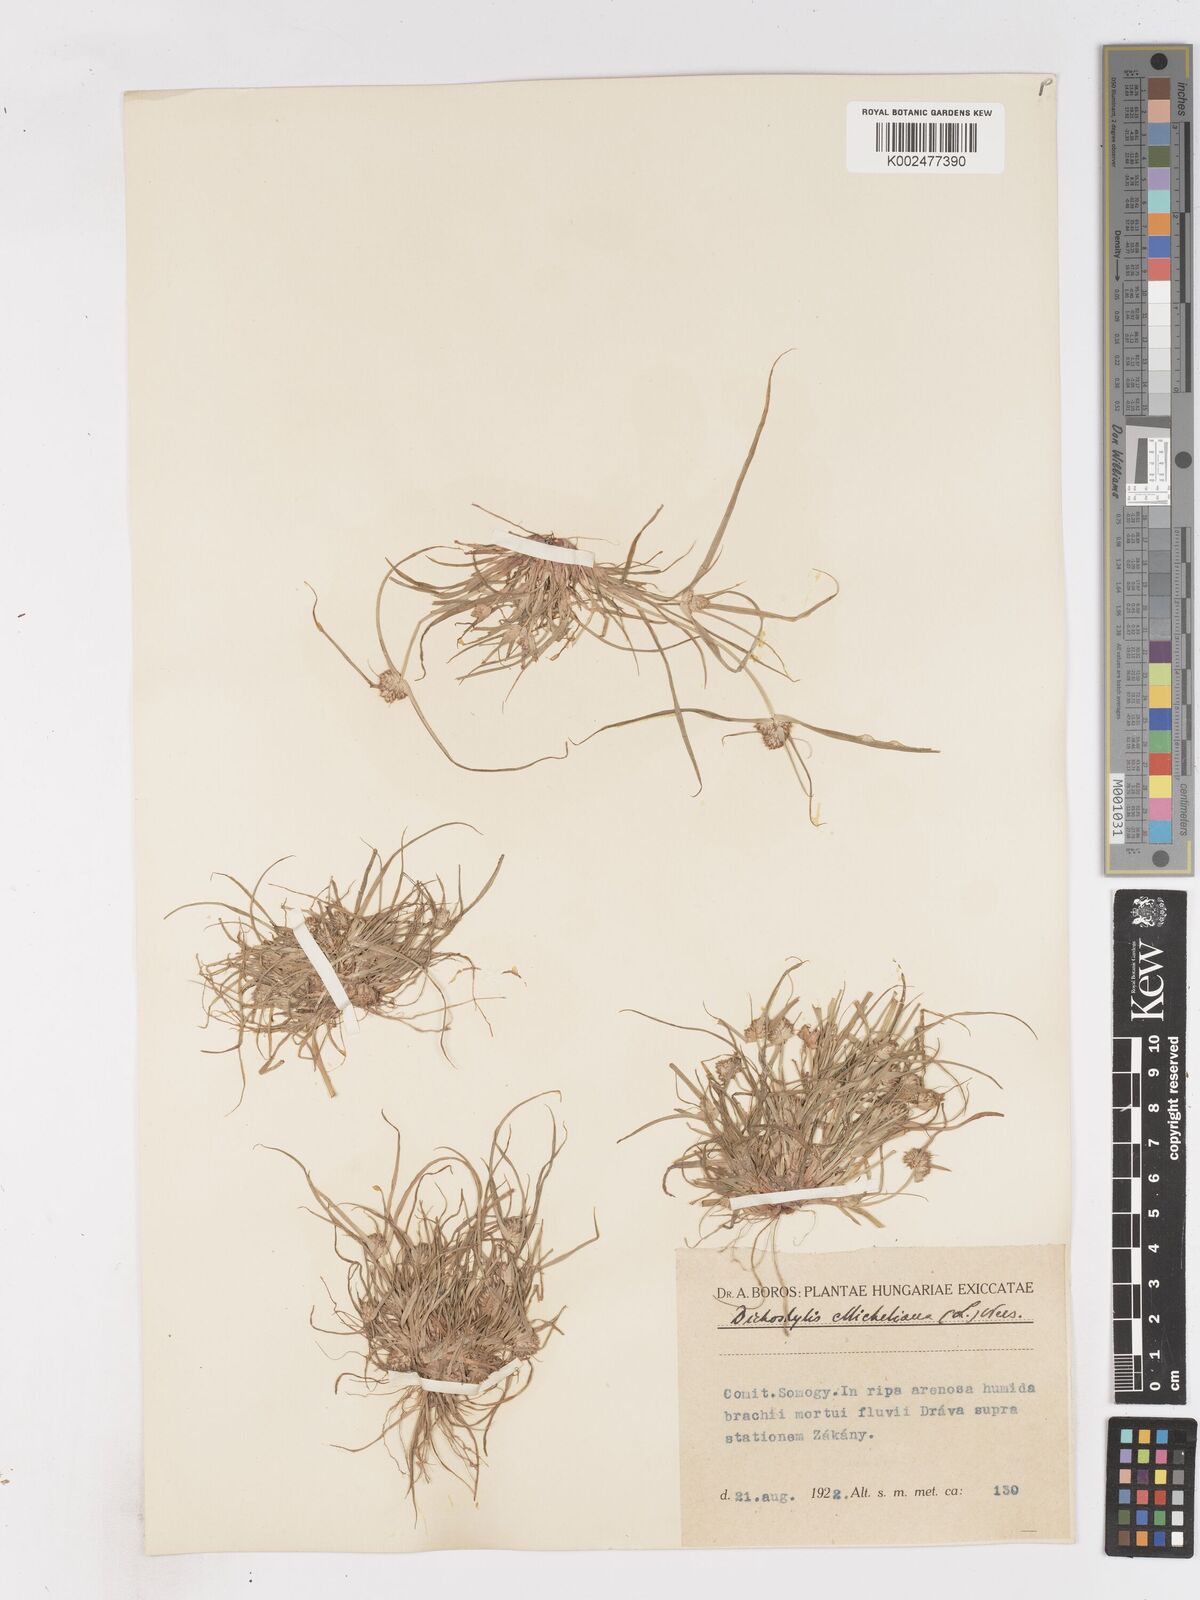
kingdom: Plantae
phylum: Tracheophyta
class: Liliopsida
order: Poales
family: Cyperaceae
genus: Cyperus
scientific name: Cyperus michelianus
